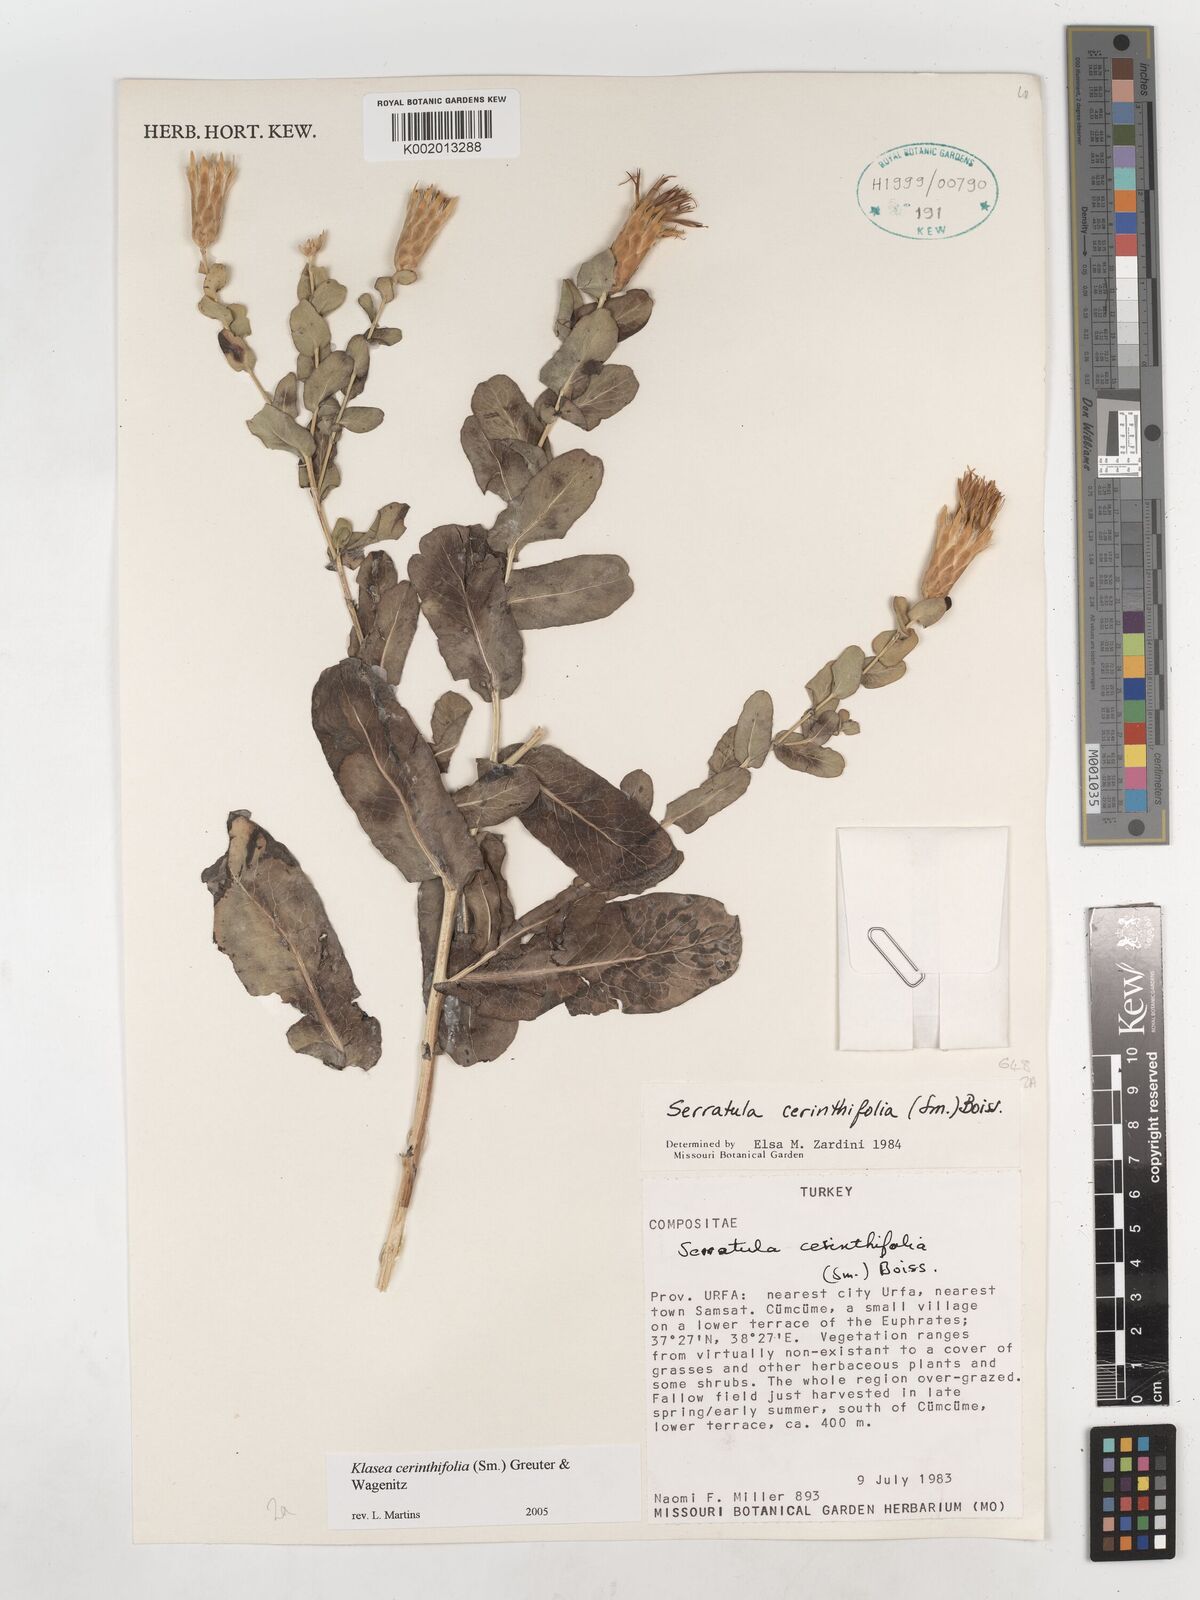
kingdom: Plantae
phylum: Tracheophyta
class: Magnoliopsida
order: Asterales
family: Asteraceae
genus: Klasea
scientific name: Klasea cerinthifolia
